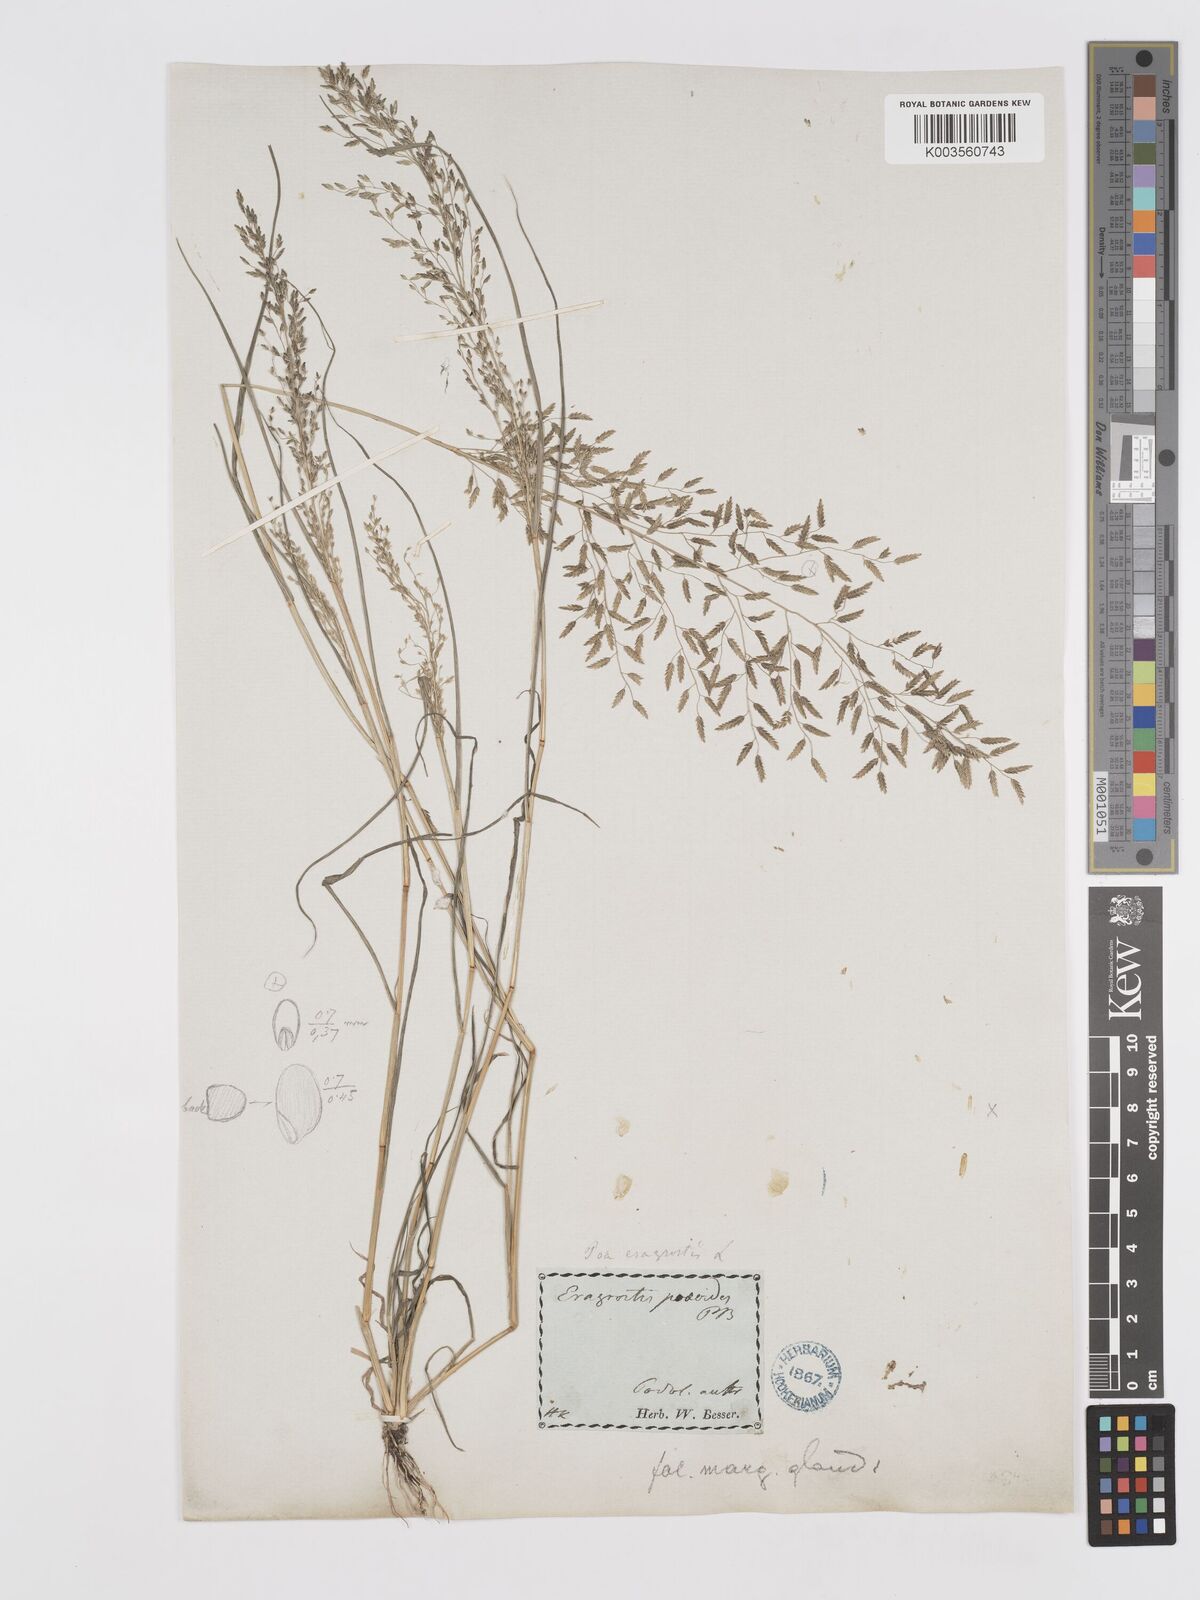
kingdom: Plantae
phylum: Tracheophyta
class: Liliopsida
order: Poales
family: Poaceae
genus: Eragrostis
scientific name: Eragrostis minor
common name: Small love-grass
